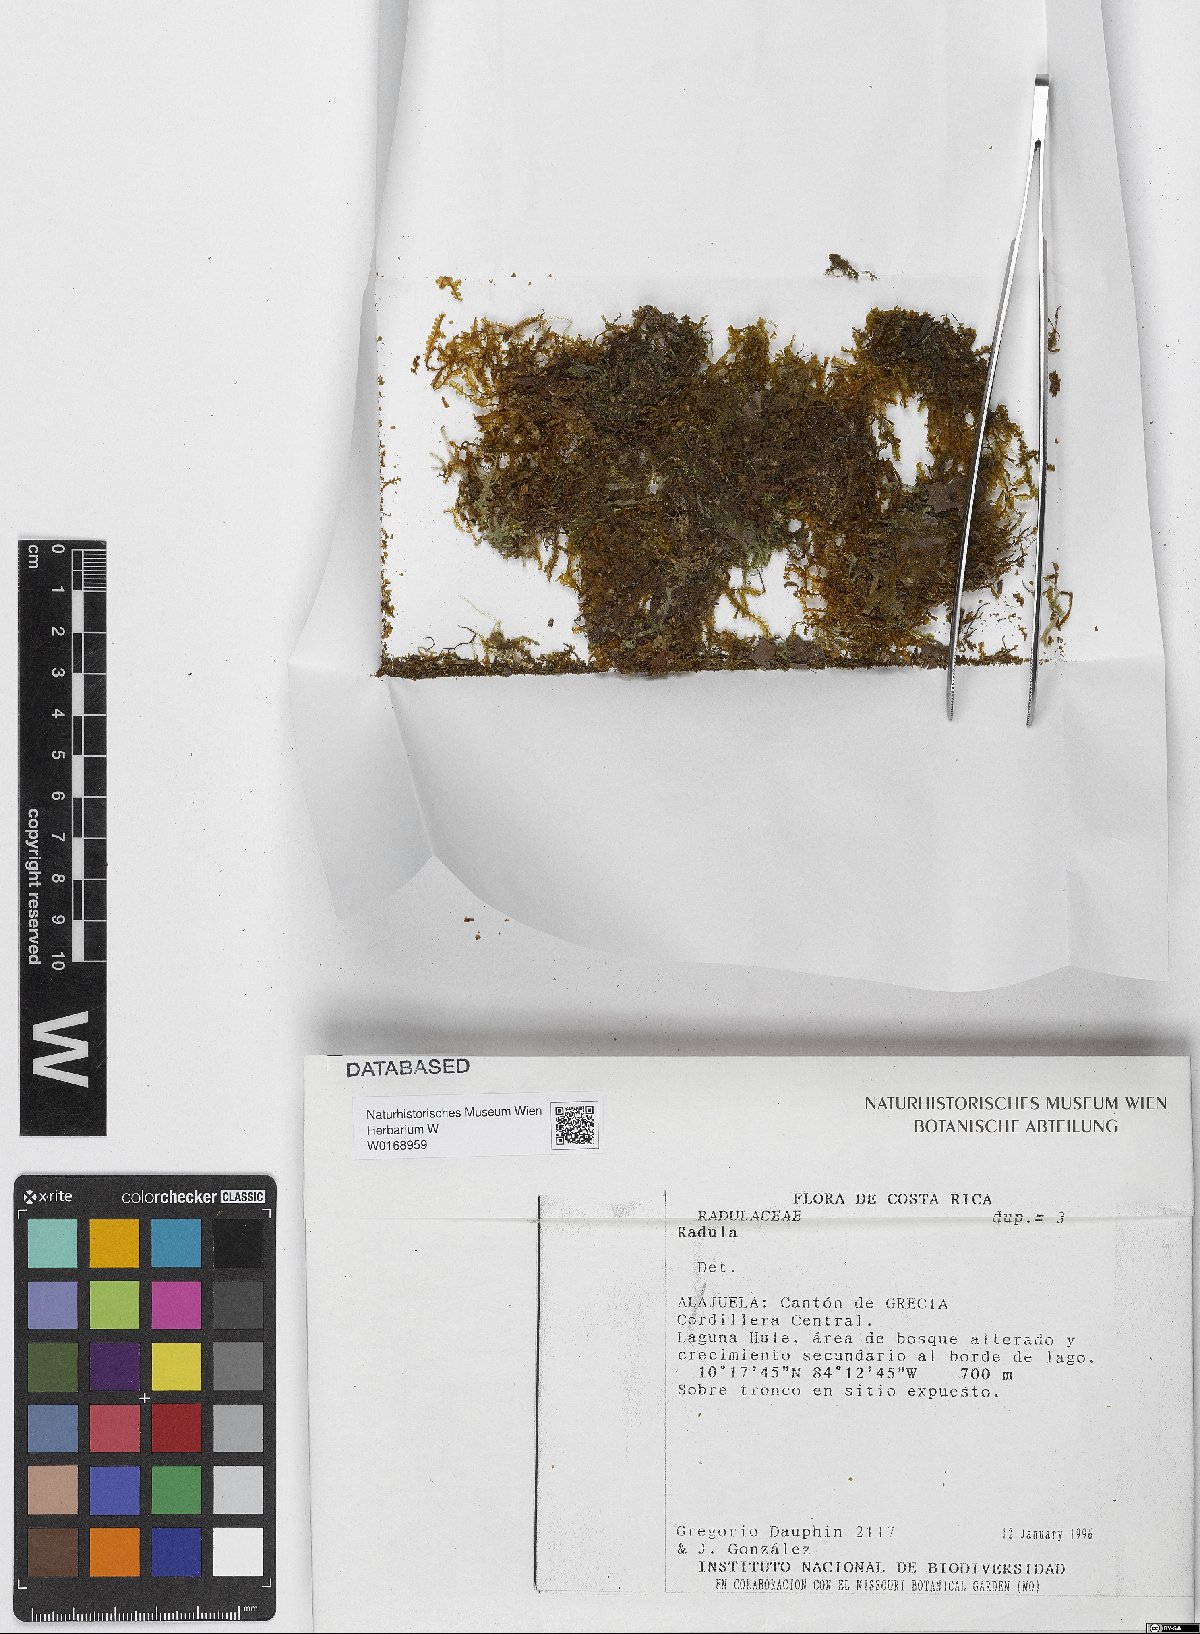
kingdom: Plantae
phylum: Marchantiophyta
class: Jungermanniopsida
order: Porellales
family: Radulaceae
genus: Radula
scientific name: Radula
